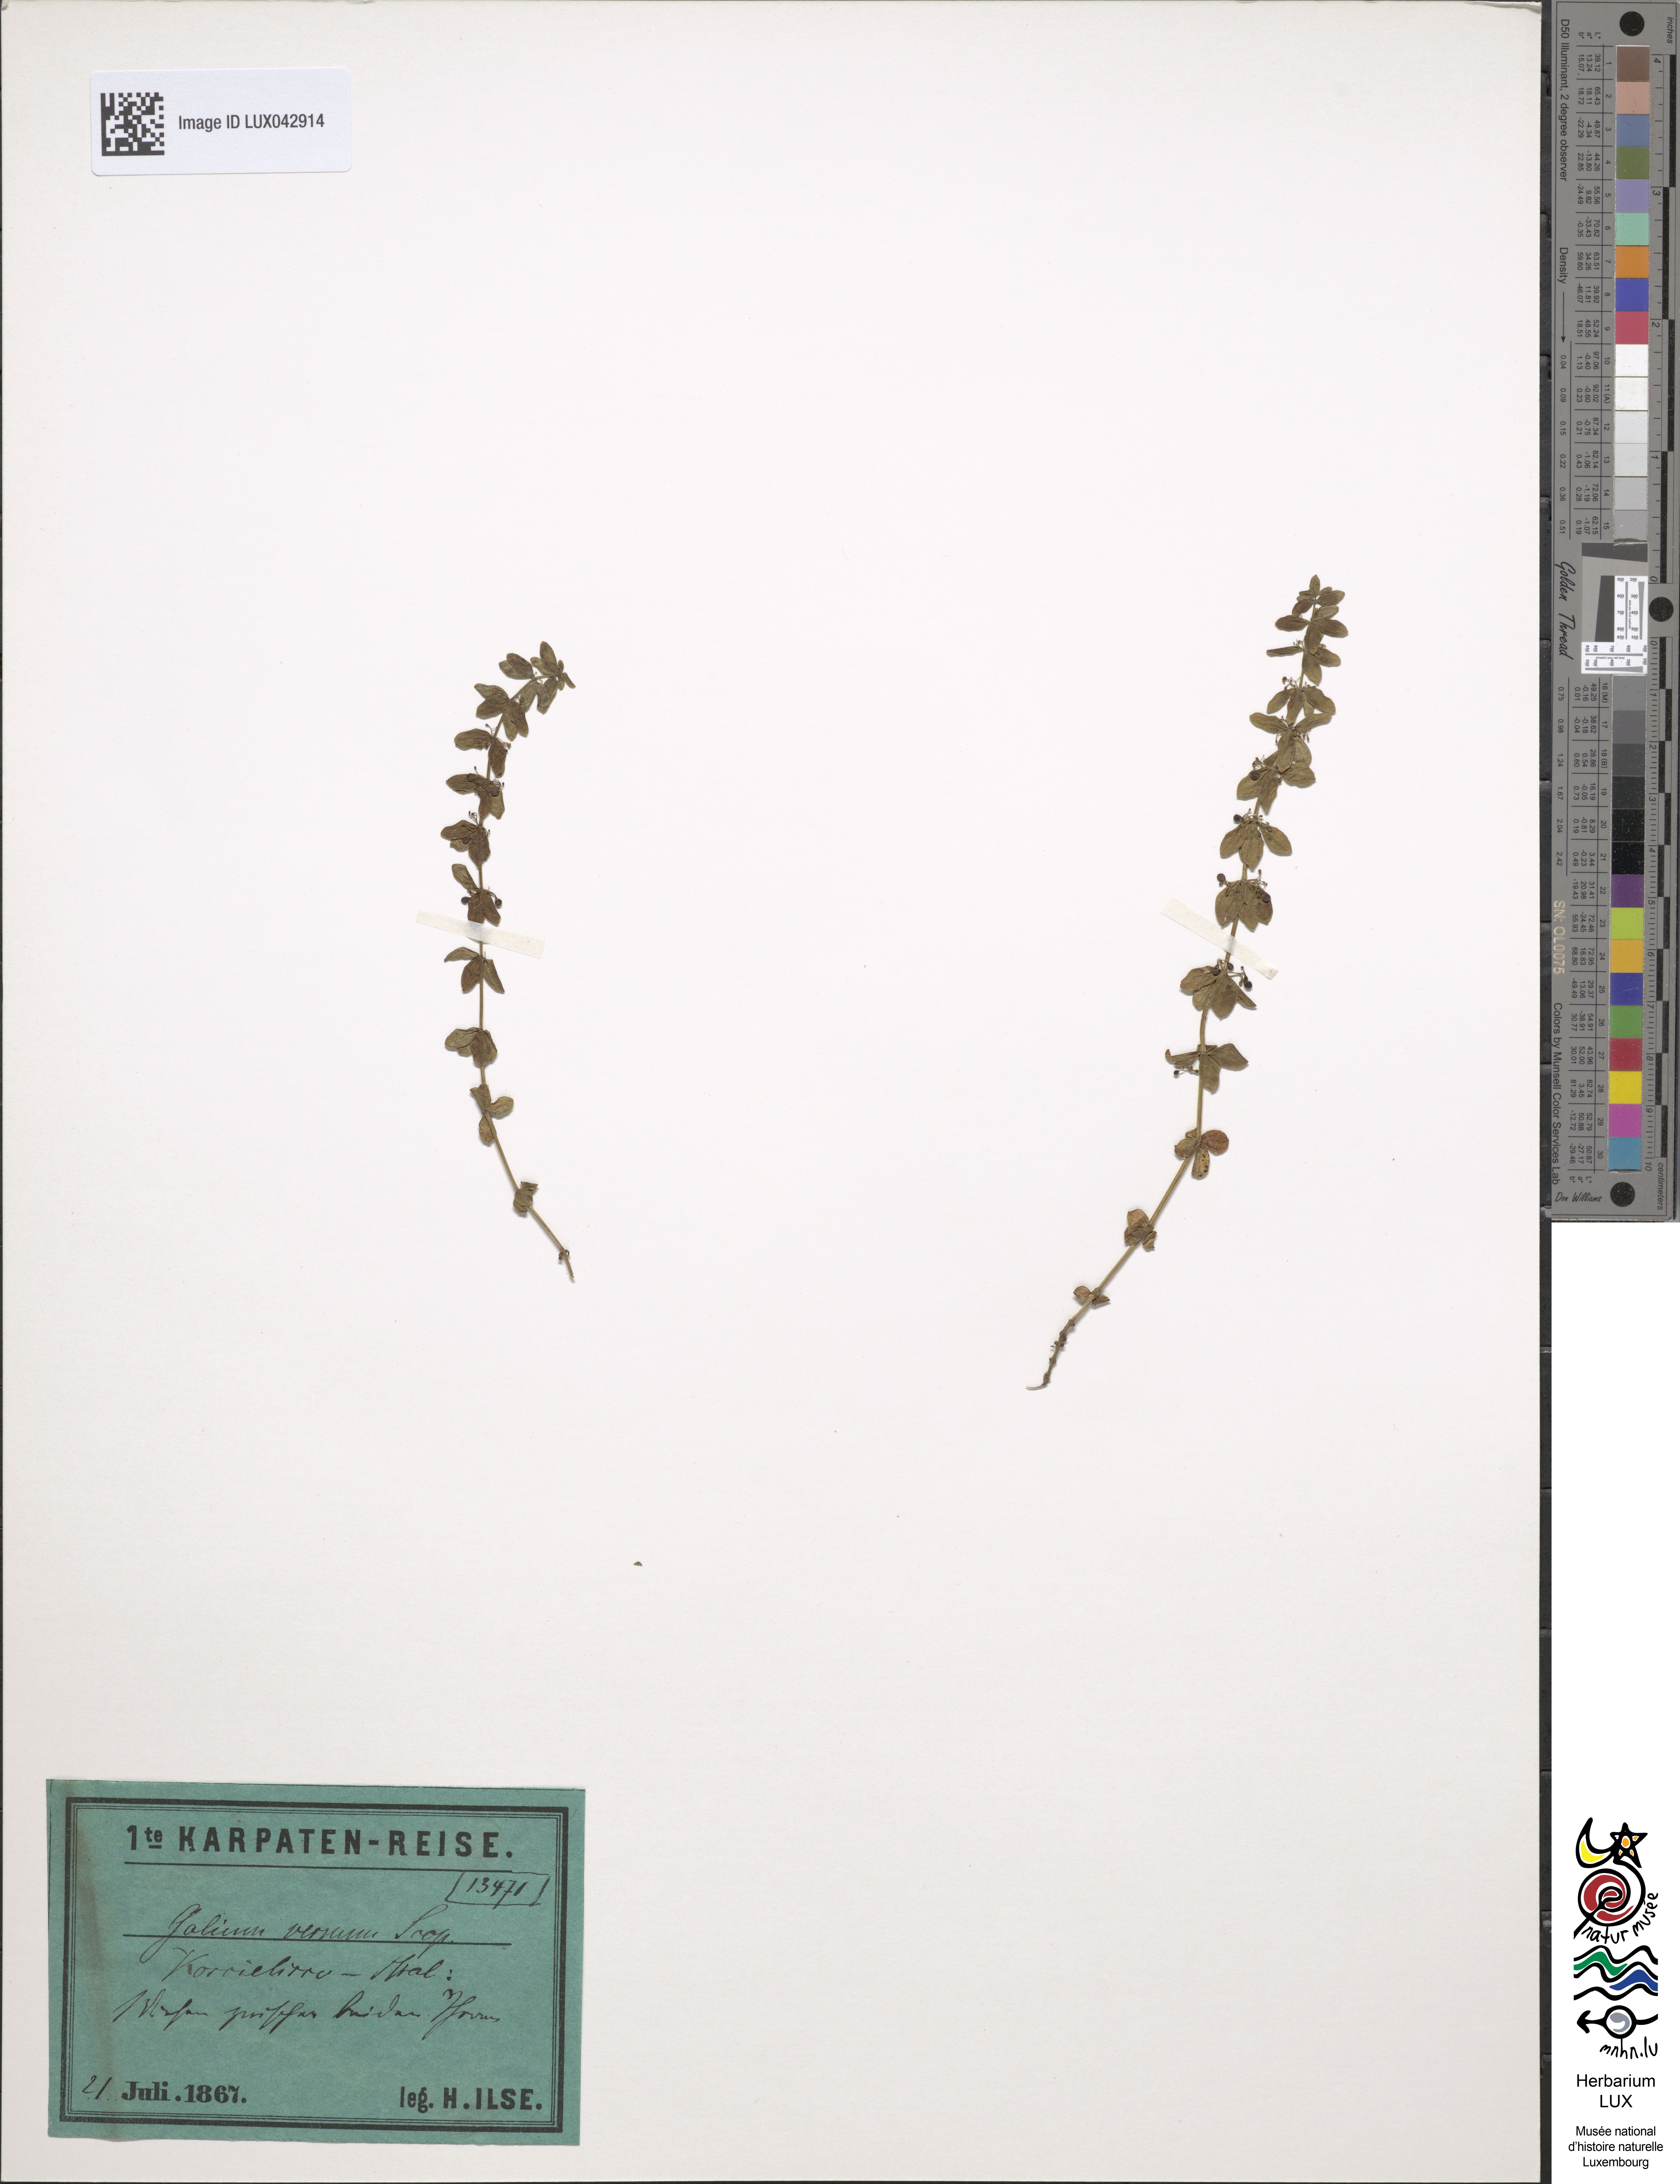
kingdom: Plantae
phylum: Tracheophyta
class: Magnoliopsida
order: Gentianales
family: Rubiaceae
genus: Cruciata
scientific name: Cruciata glabra
